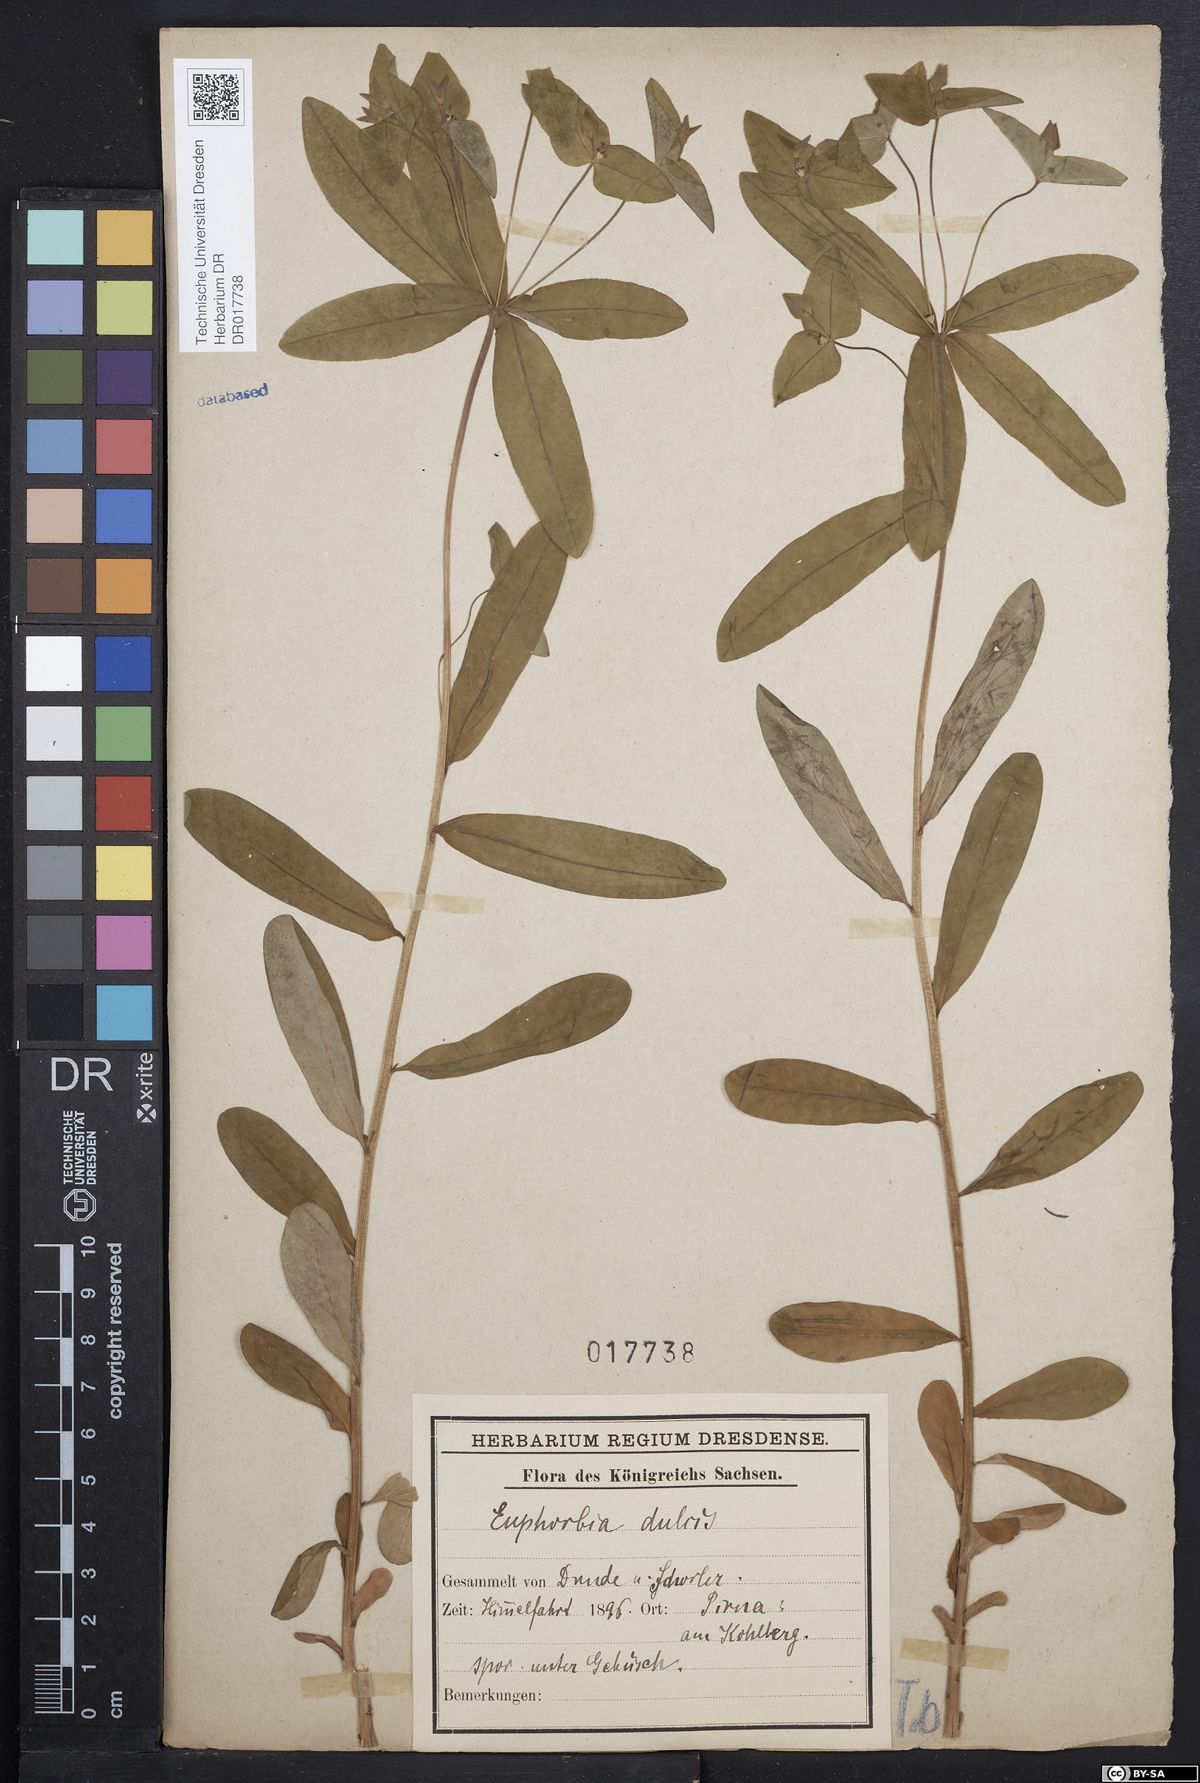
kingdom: Plantae
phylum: Tracheophyta
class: Magnoliopsida
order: Malpighiales
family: Euphorbiaceae
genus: Euphorbia
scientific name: Euphorbia dulcis
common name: Sweet spurge
